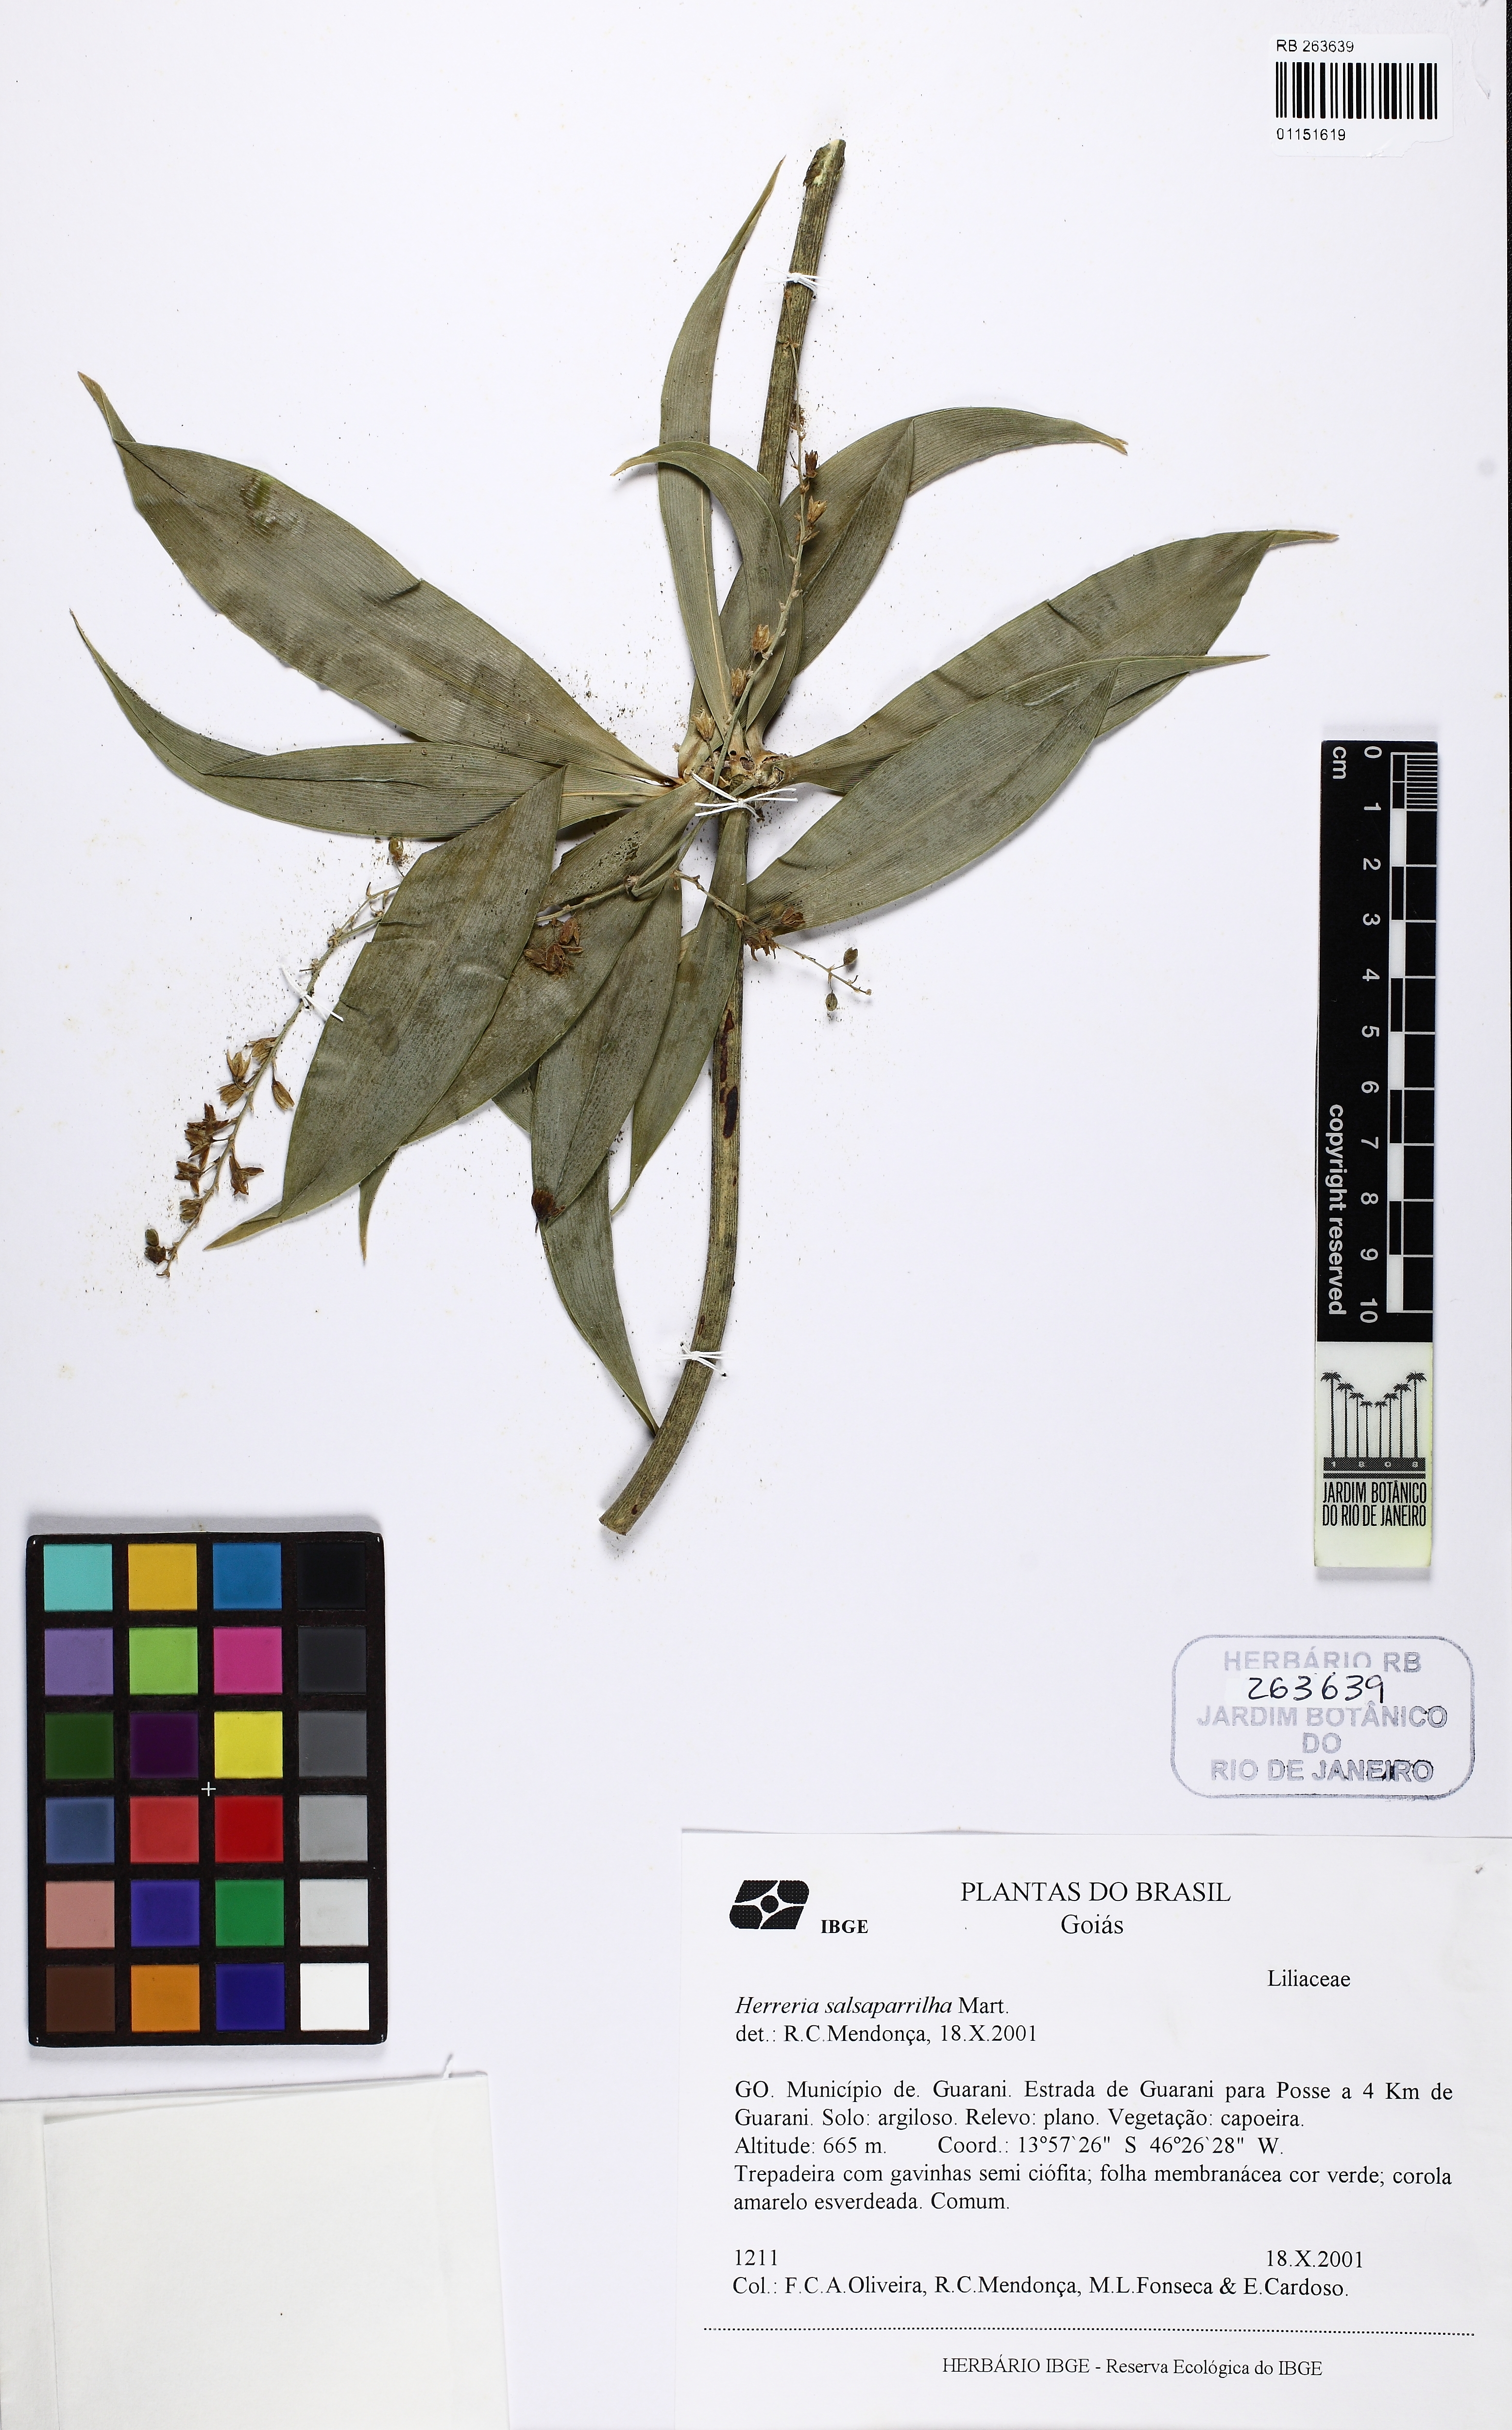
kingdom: Plantae
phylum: Tracheophyta
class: Liliopsida
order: Asparagales
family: Asparagaceae
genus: Herreria
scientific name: Herreria salsaparilha
